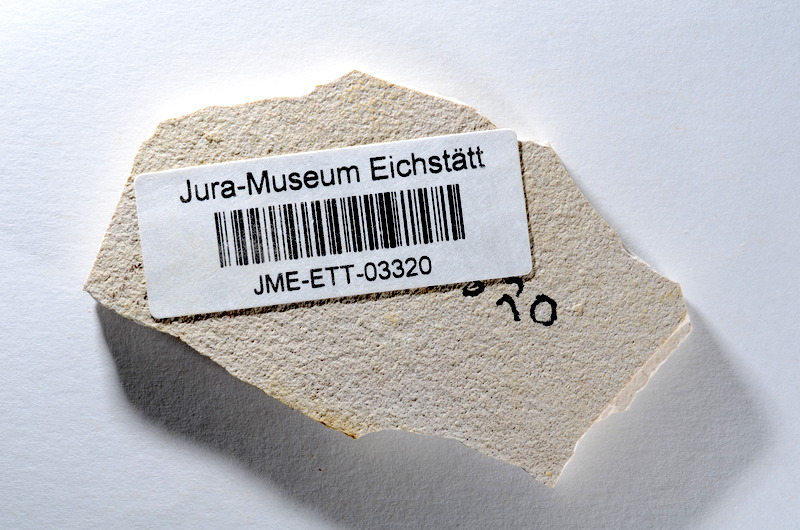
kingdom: Animalia
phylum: Chordata
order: Salmoniformes
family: Orthogonikleithridae
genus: Orthogonikleithrus
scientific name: Orthogonikleithrus hoelli
